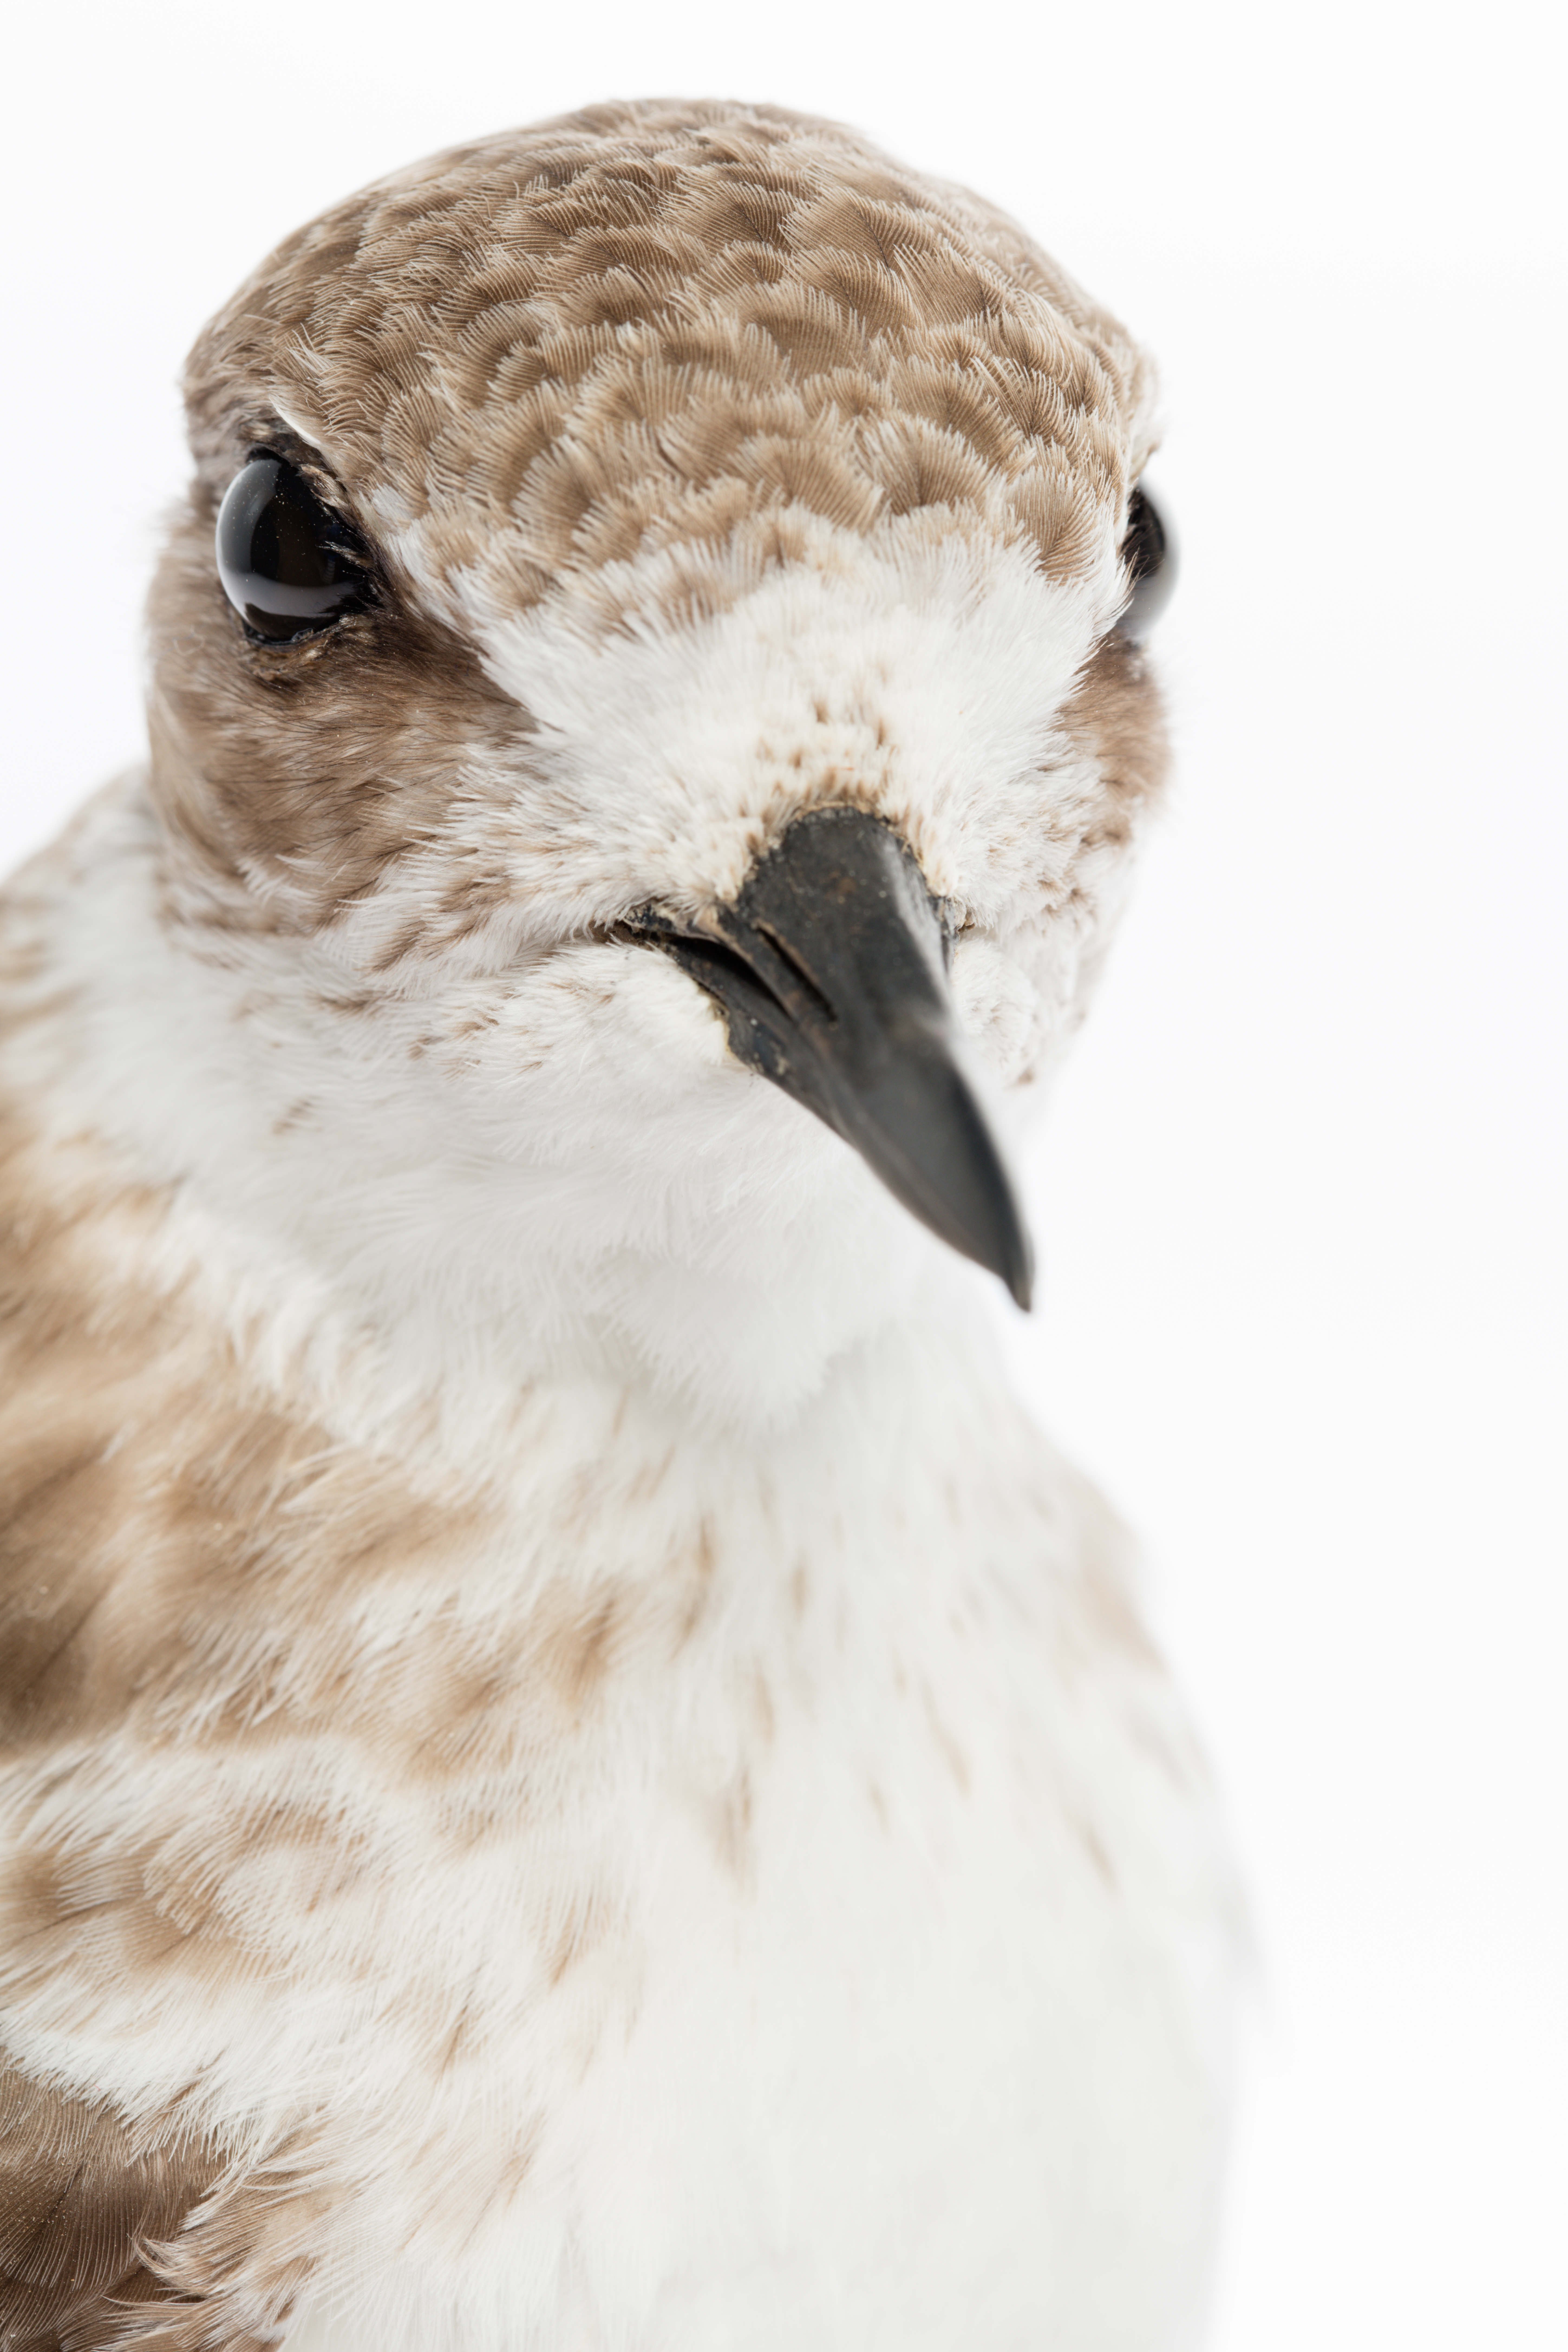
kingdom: Animalia
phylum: Chordata
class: Aves
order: Charadriiformes
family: Charadriidae
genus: Charadrius
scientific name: Charadrius obscurus
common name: New zealand plover
